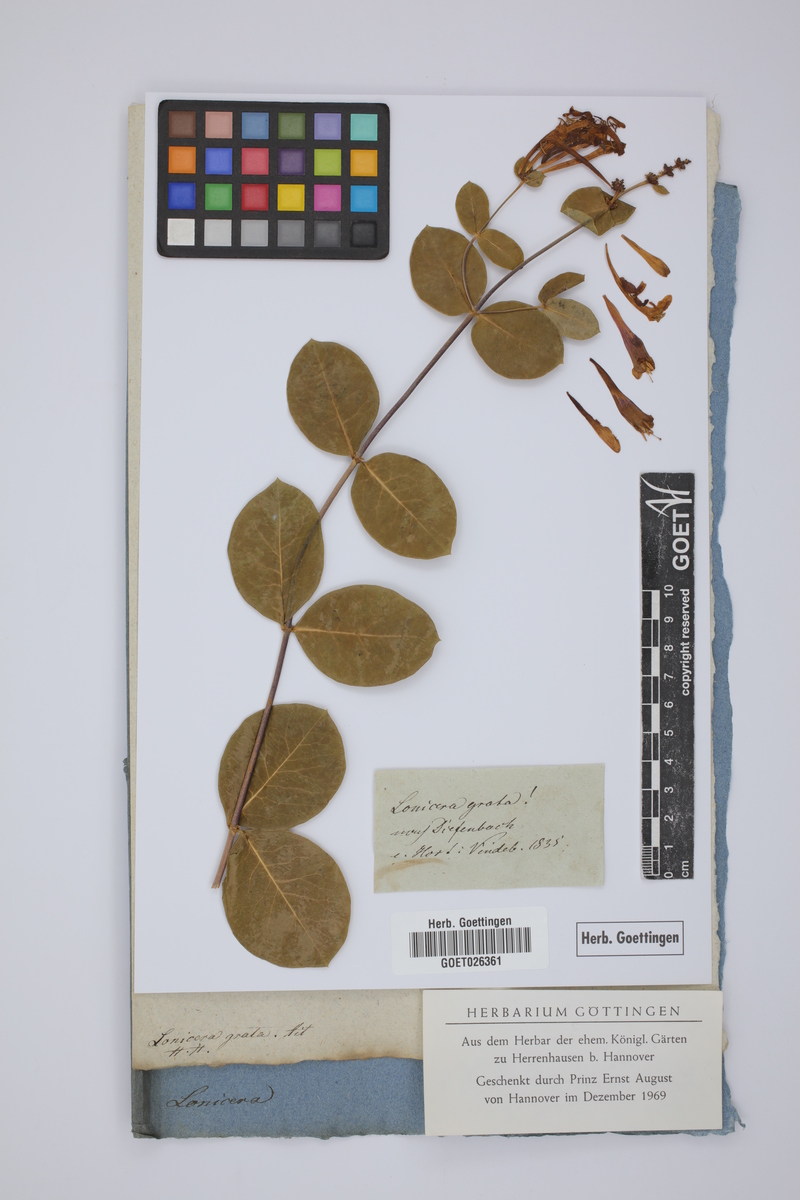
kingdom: Plantae
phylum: Tracheophyta
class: Magnoliopsida
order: Dipsacales
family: Caprifoliaceae
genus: Lonicera
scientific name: Lonicera americana
